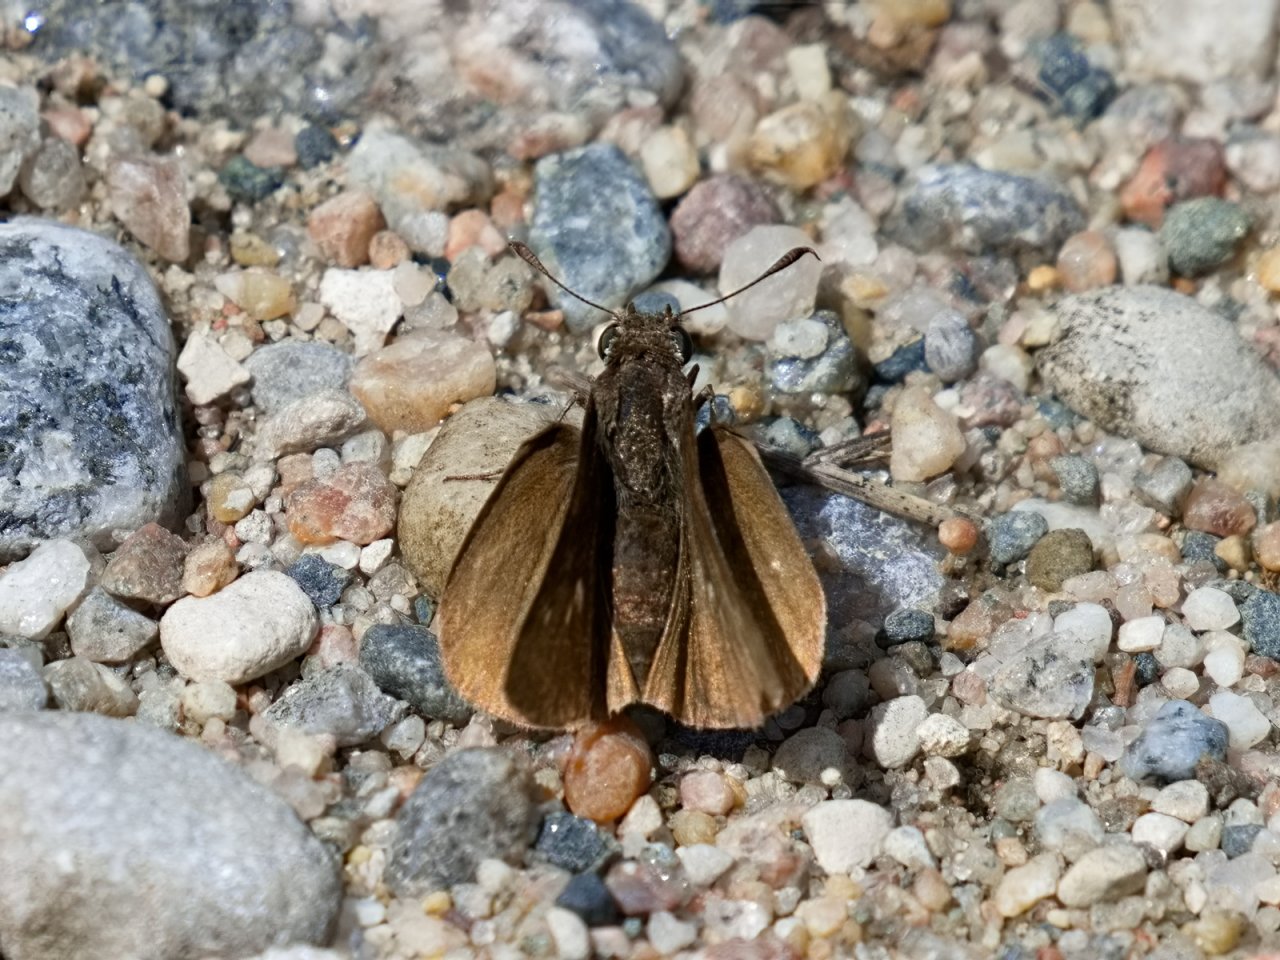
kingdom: Animalia
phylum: Arthropoda
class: Insecta
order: Lepidoptera
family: Hesperiidae
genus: Euphyes
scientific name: Euphyes vestris
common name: Dun Skipper
